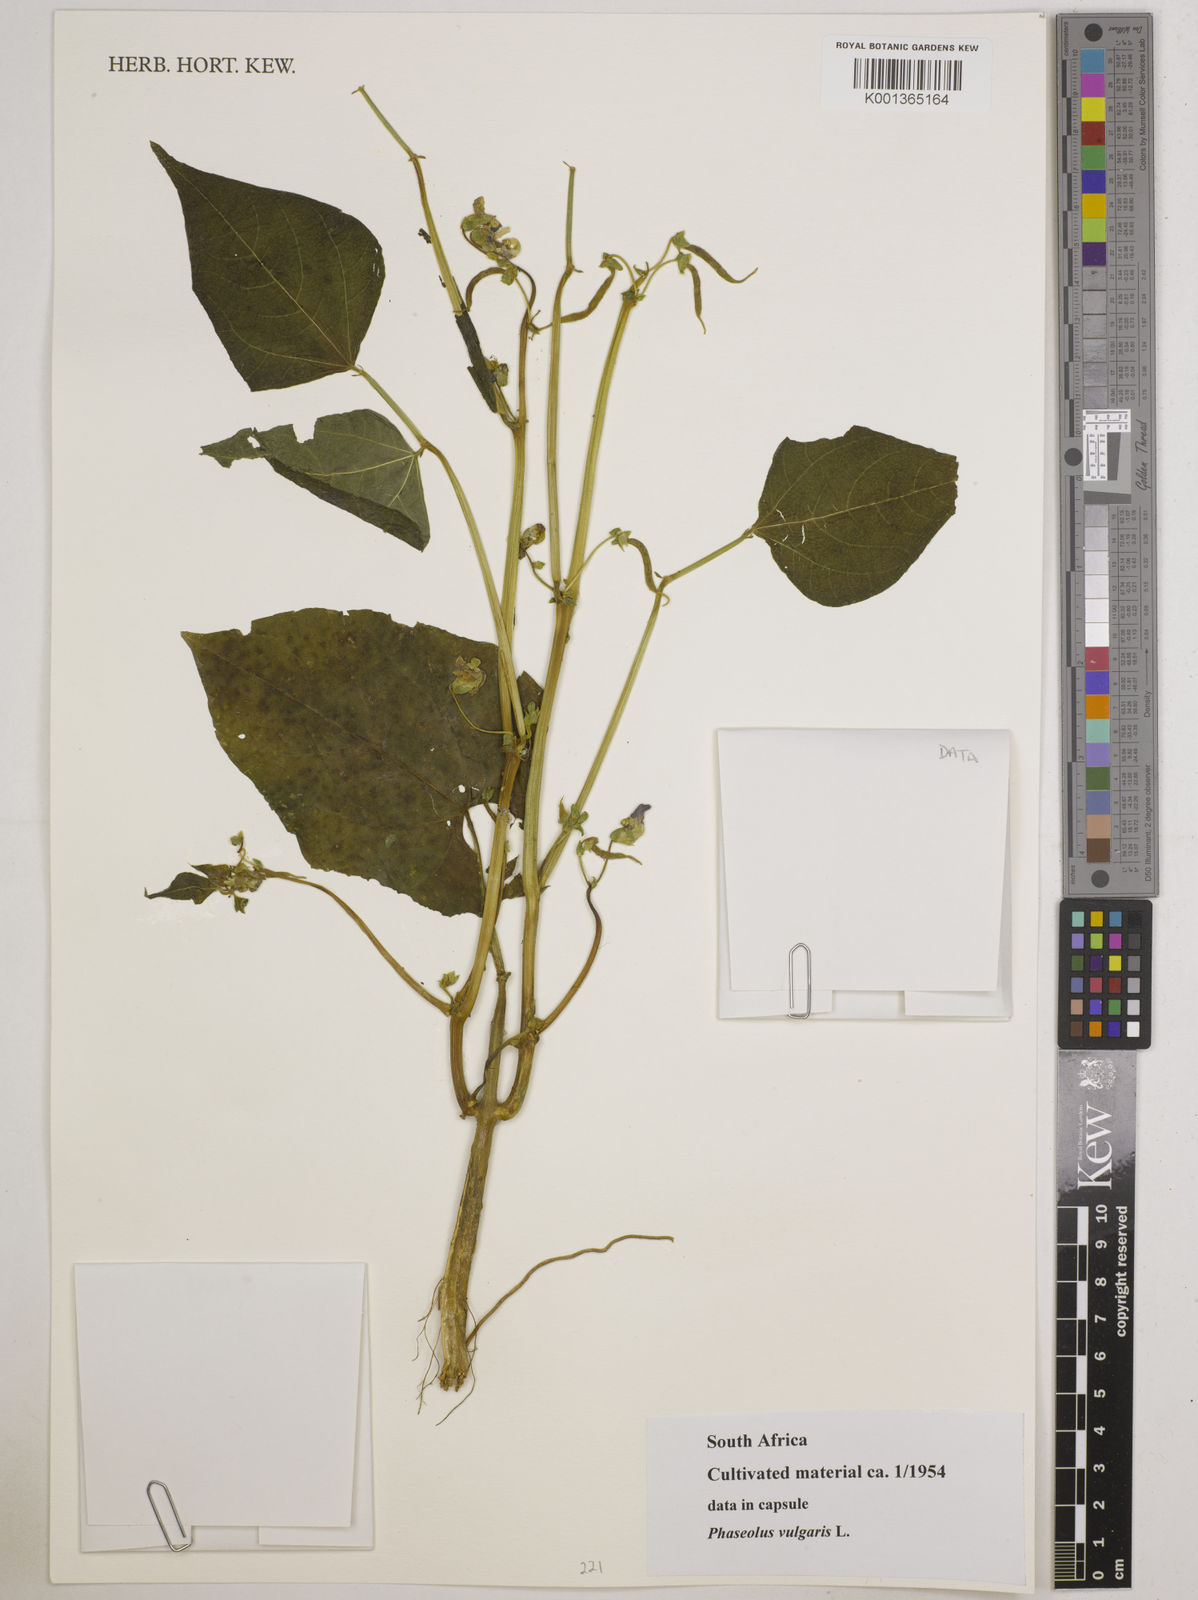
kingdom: Plantae
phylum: Tracheophyta
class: Magnoliopsida
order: Fabales
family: Fabaceae
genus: Phaseolus
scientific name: Phaseolus vulgaris
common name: Bean
